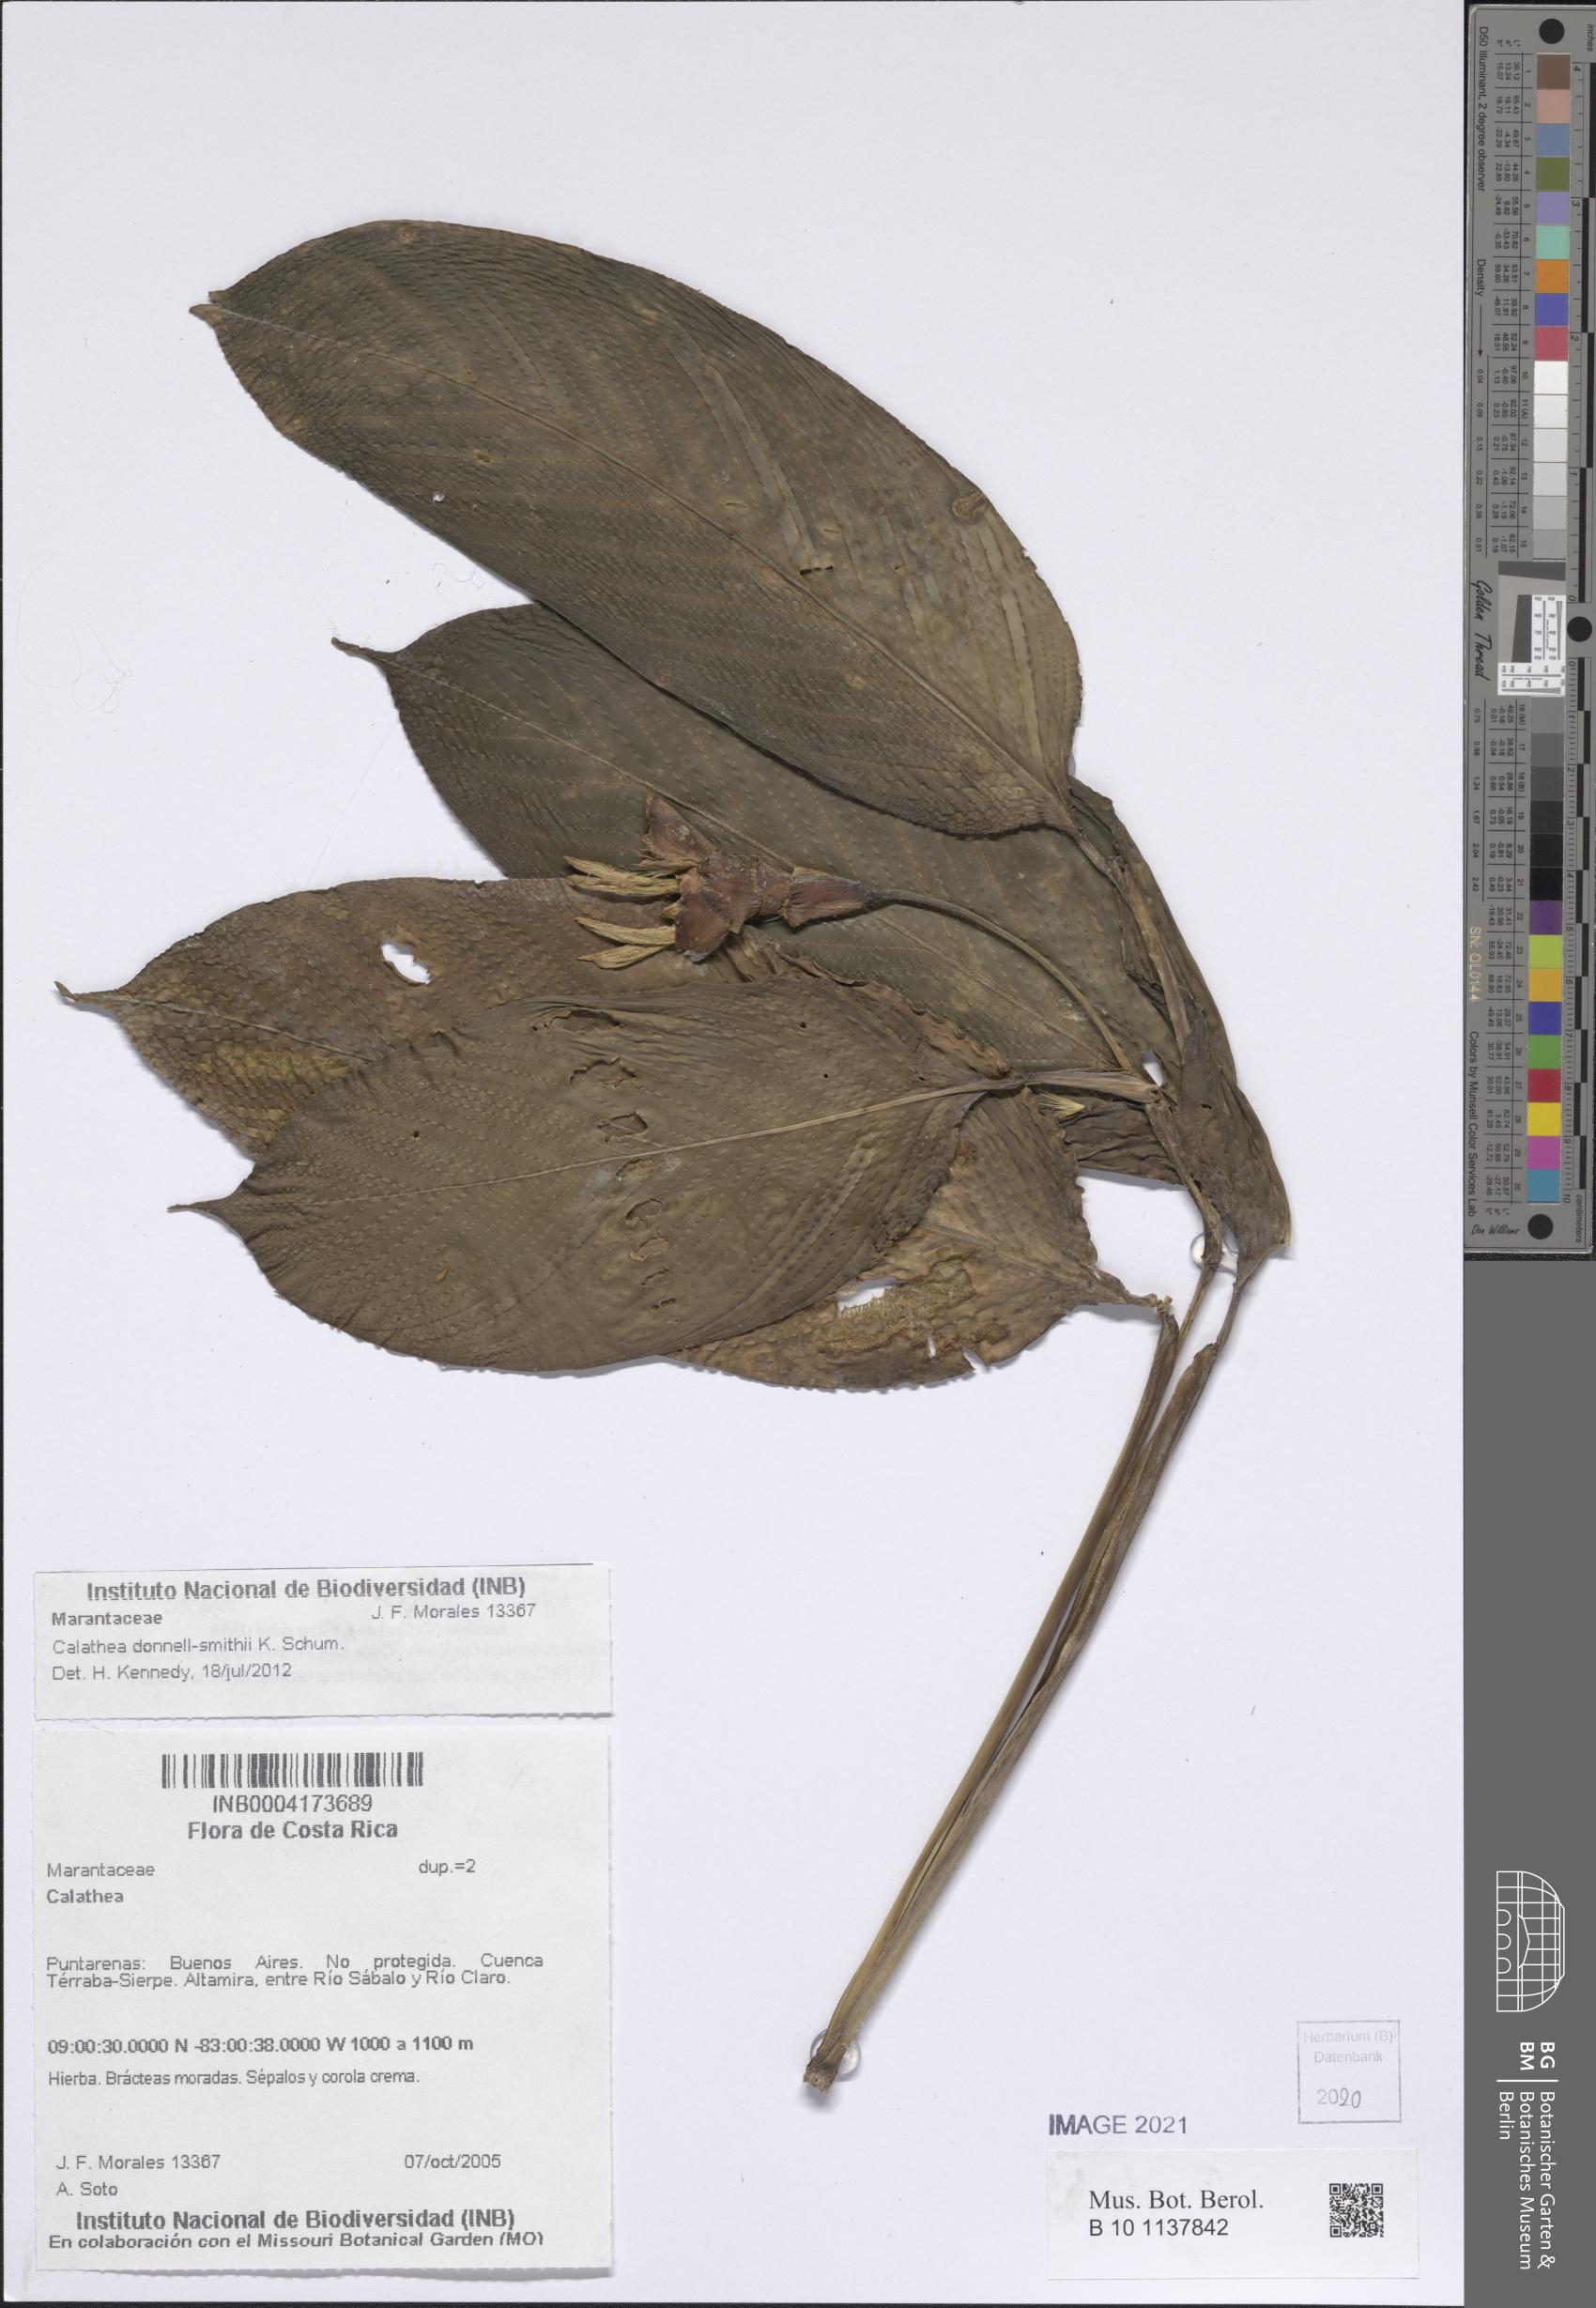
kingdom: Plantae
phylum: Tracheophyta
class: Liliopsida
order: Zingiberales
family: Marantaceae
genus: Goeppertia
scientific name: Goeppertia donnell-smithii
